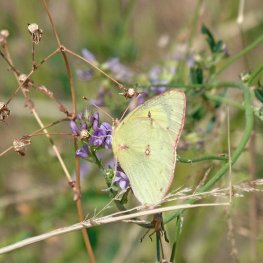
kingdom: Animalia
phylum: Arthropoda
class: Insecta
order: Lepidoptera
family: Pieridae
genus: Colias
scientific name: Colias philodice
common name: Clouded Sulphur
